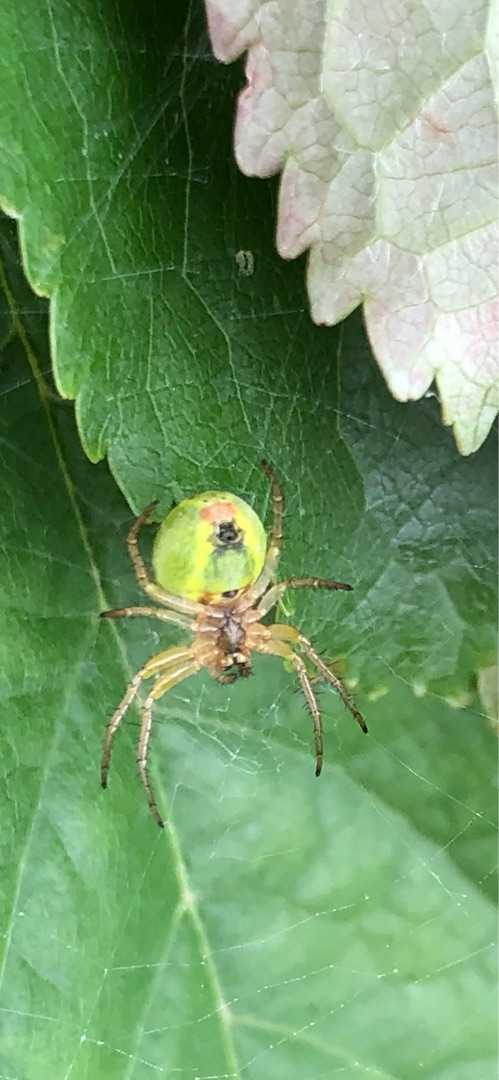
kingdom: Animalia
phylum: Arthropoda
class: Arachnida
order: Araneae
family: Araneidae
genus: Araniella
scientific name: Araniella
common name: Agurkeedderkopslægten
